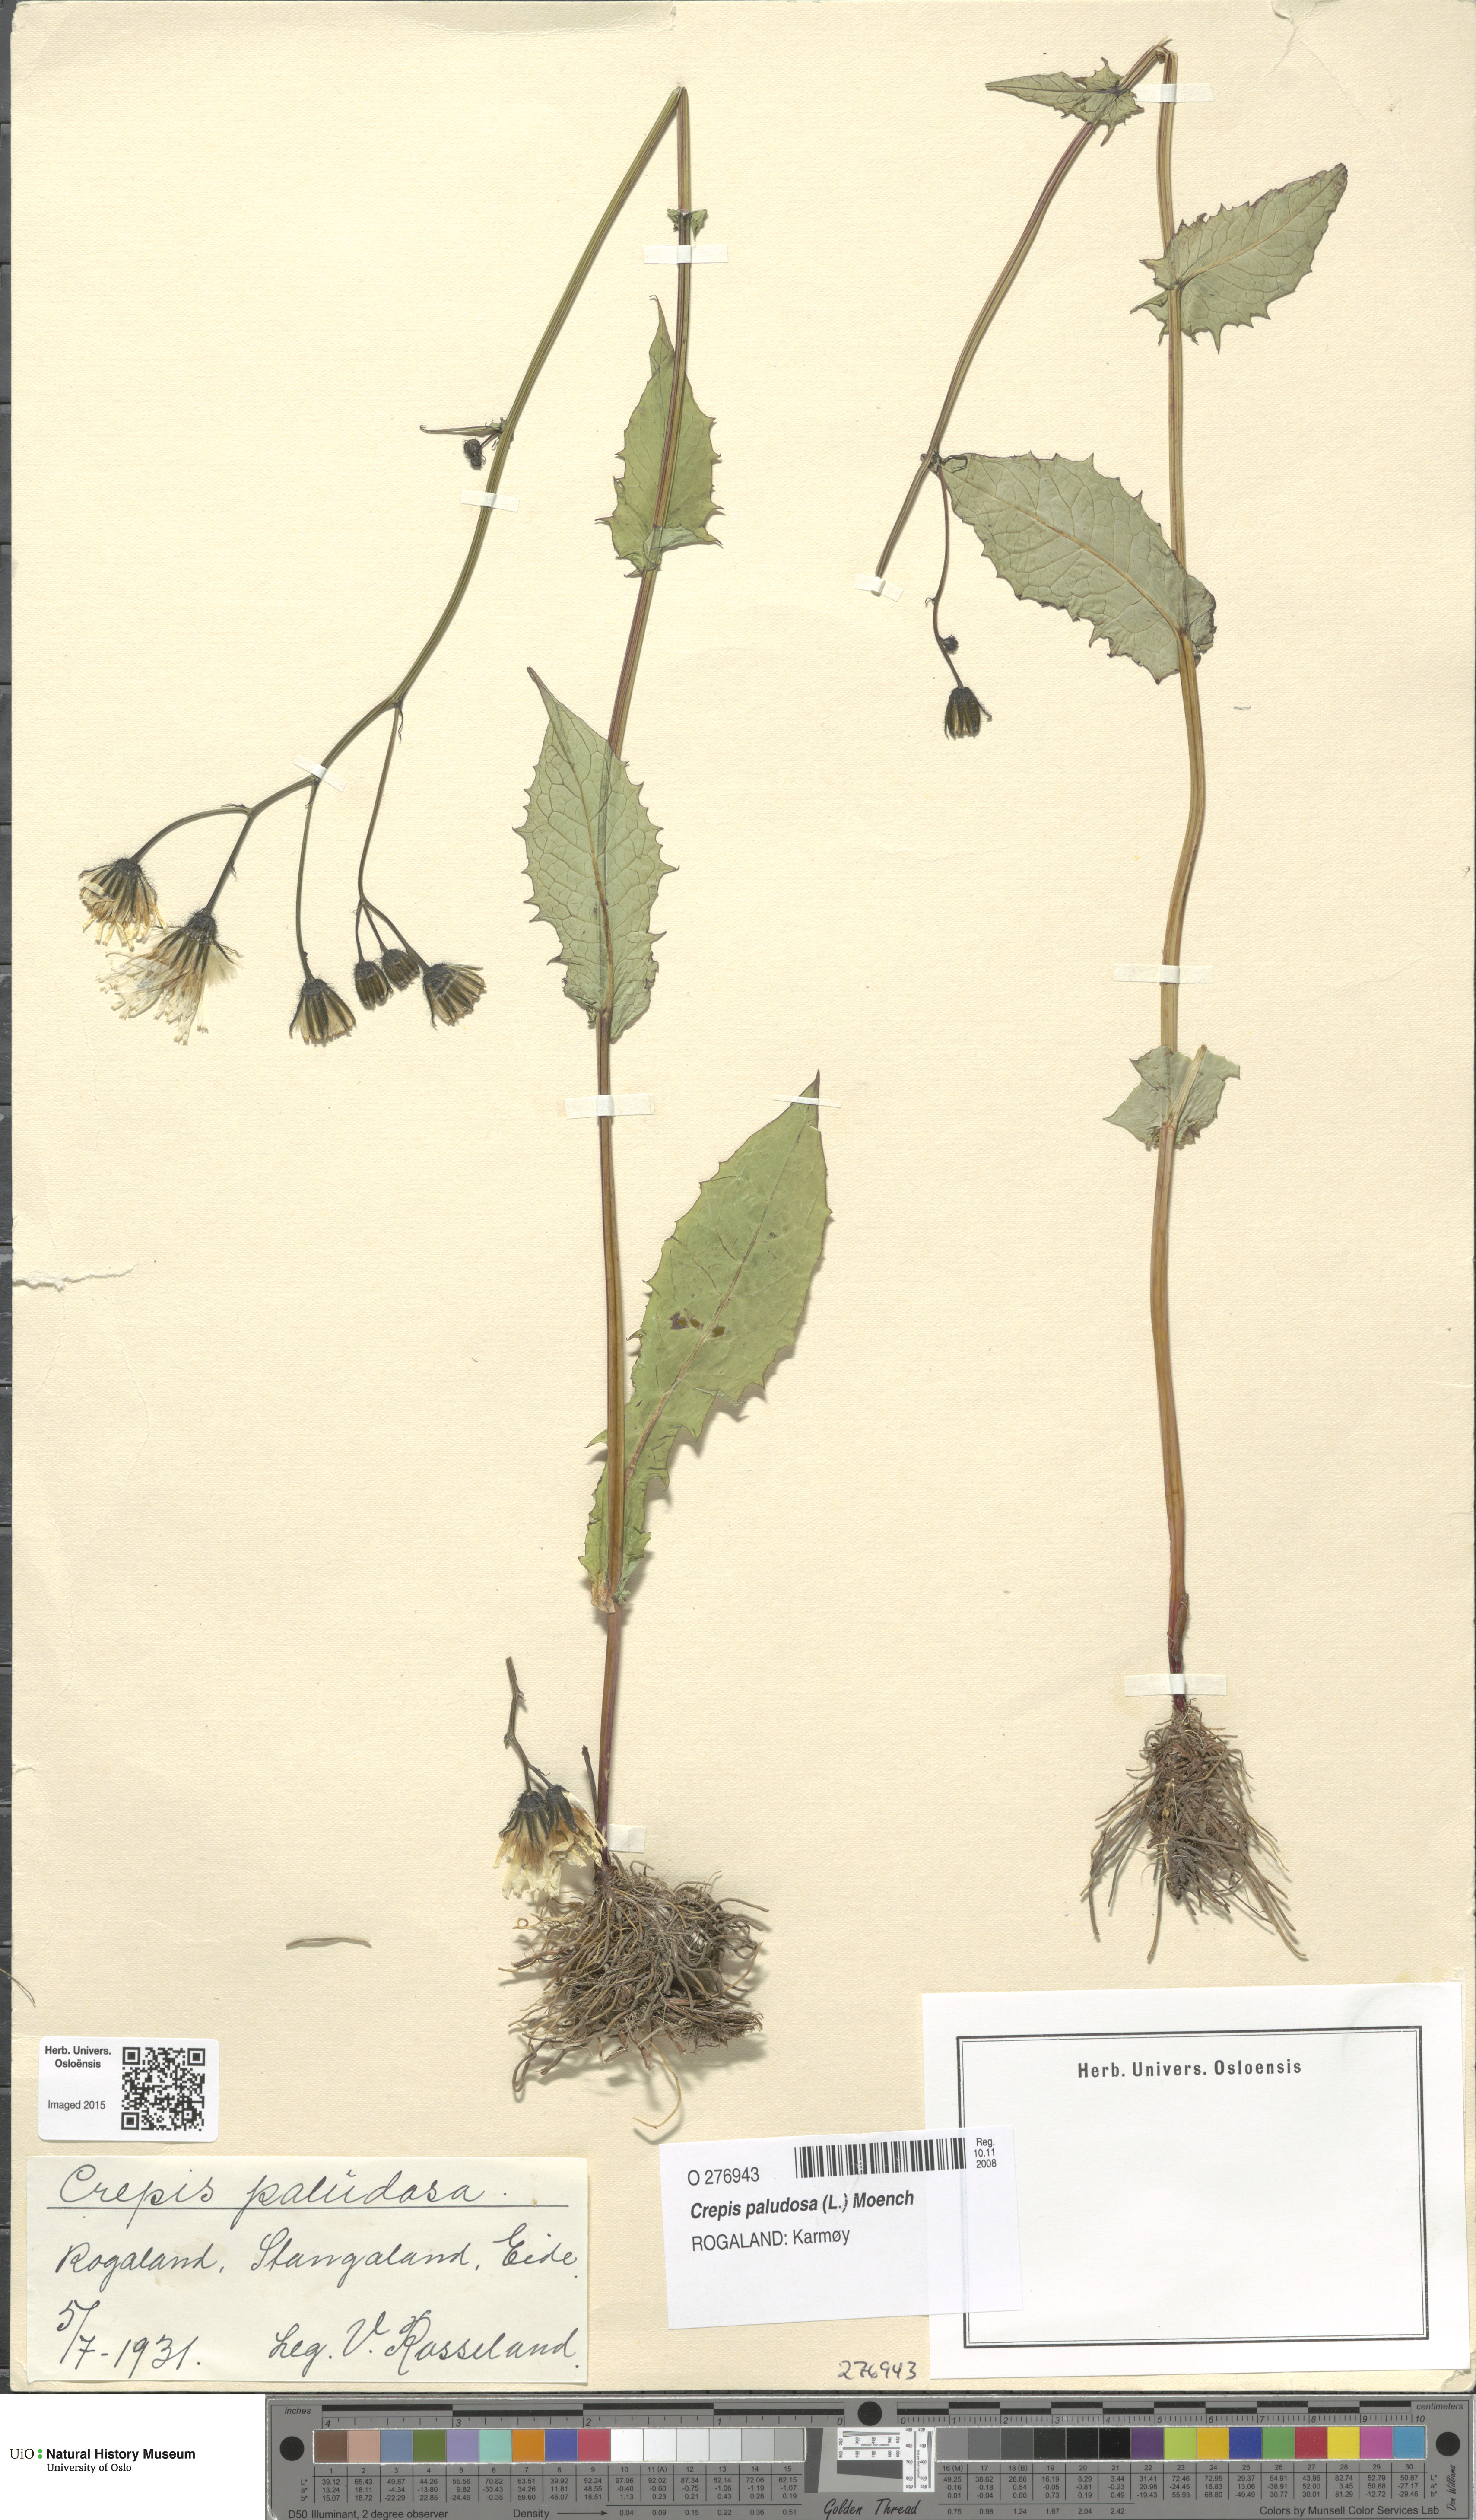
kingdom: Plantae
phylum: Tracheophyta
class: Magnoliopsida
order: Asterales
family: Asteraceae
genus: Crepis
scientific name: Crepis paludosa
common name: Marsh hawk's-beard
